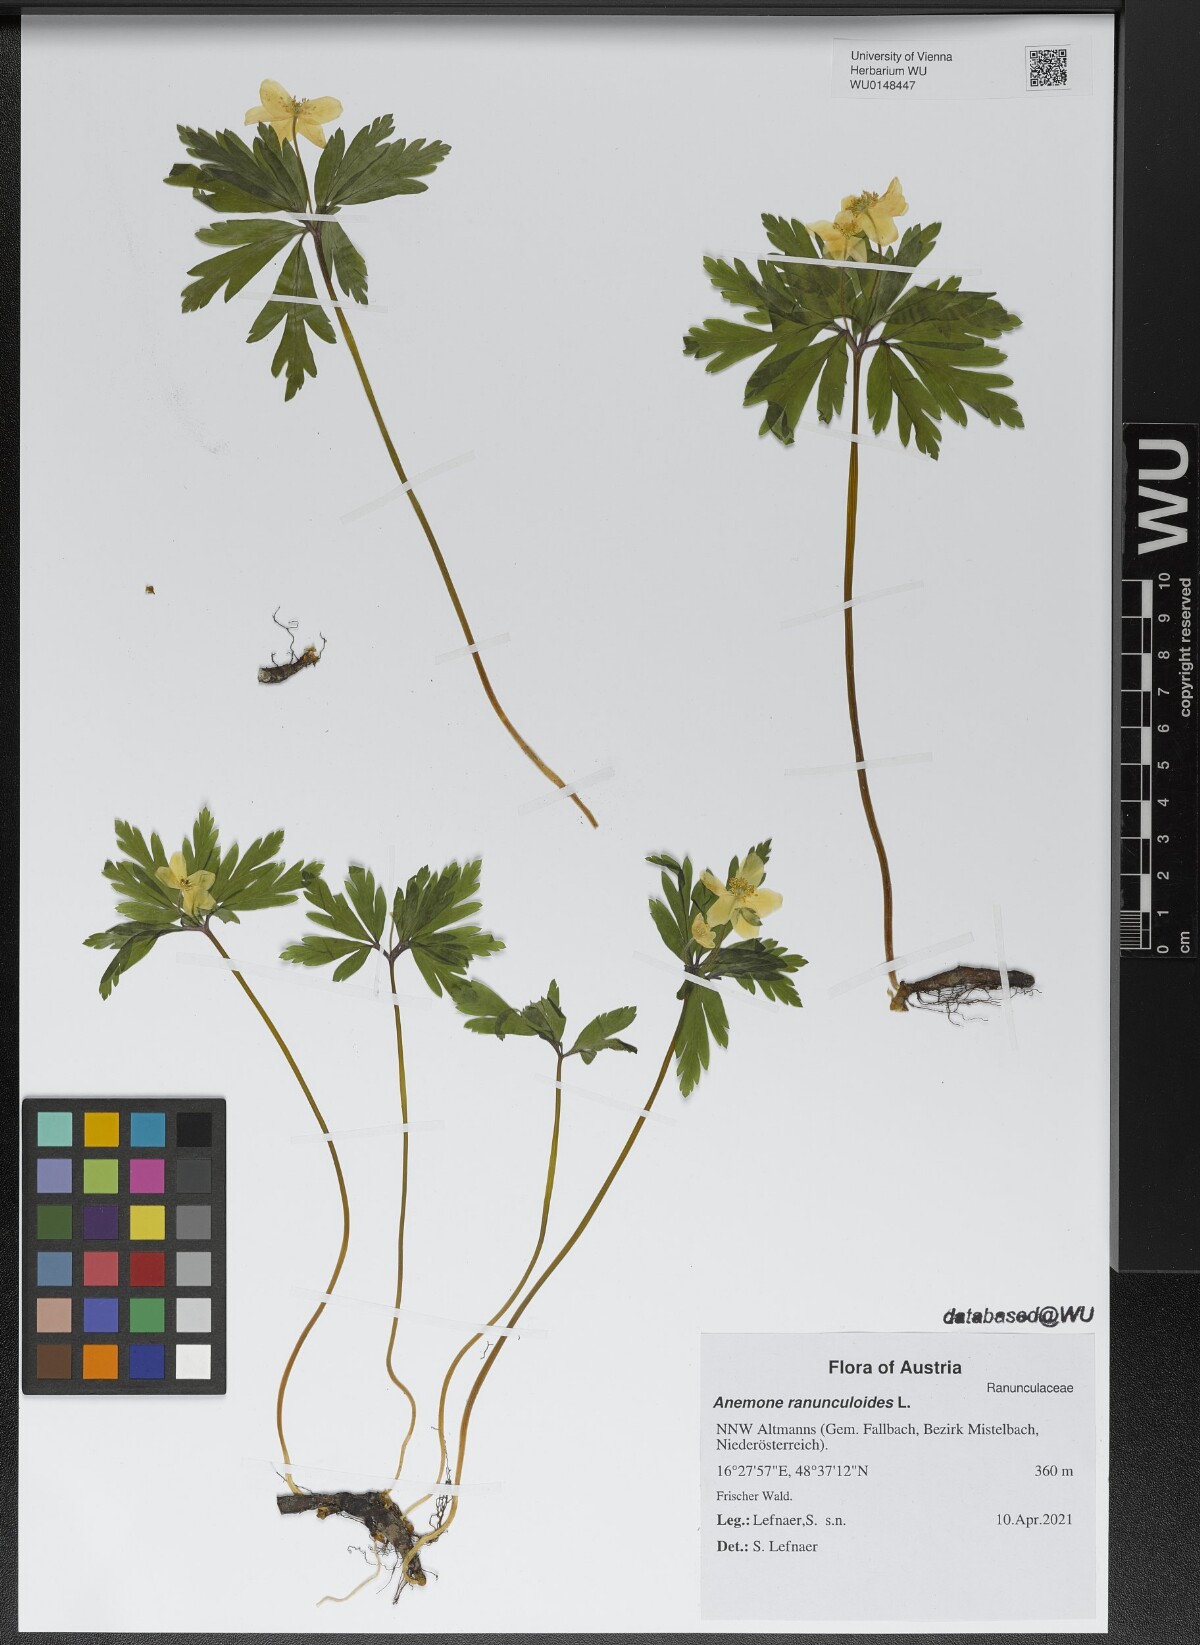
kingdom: Plantae
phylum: Tracheophyta
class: Magnoliopsida
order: Ranunculales
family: Ranunculaceae
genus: Anemone
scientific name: Anemone ranunculoides
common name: Yellow anemone
